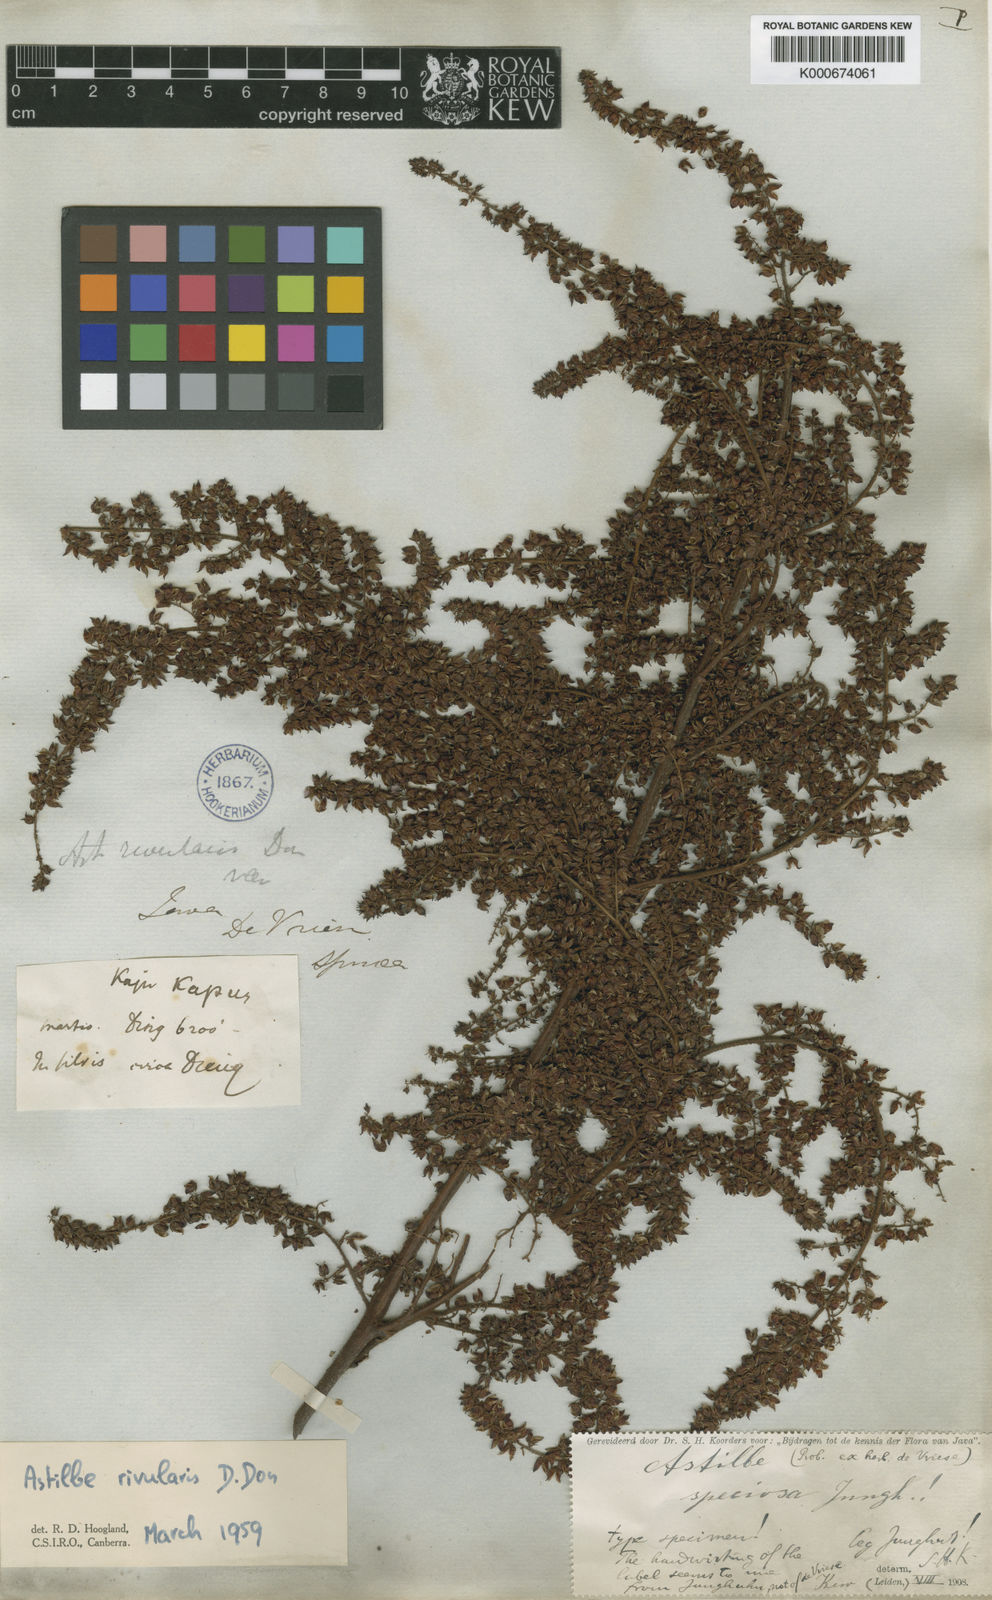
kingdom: Plantae
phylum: Tracheophyta
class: Magnoliopsida
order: Saxifragales
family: Saxifragaceae
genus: Astilbe
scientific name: Astilbe rivularis
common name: Tall false-buck's-beard
